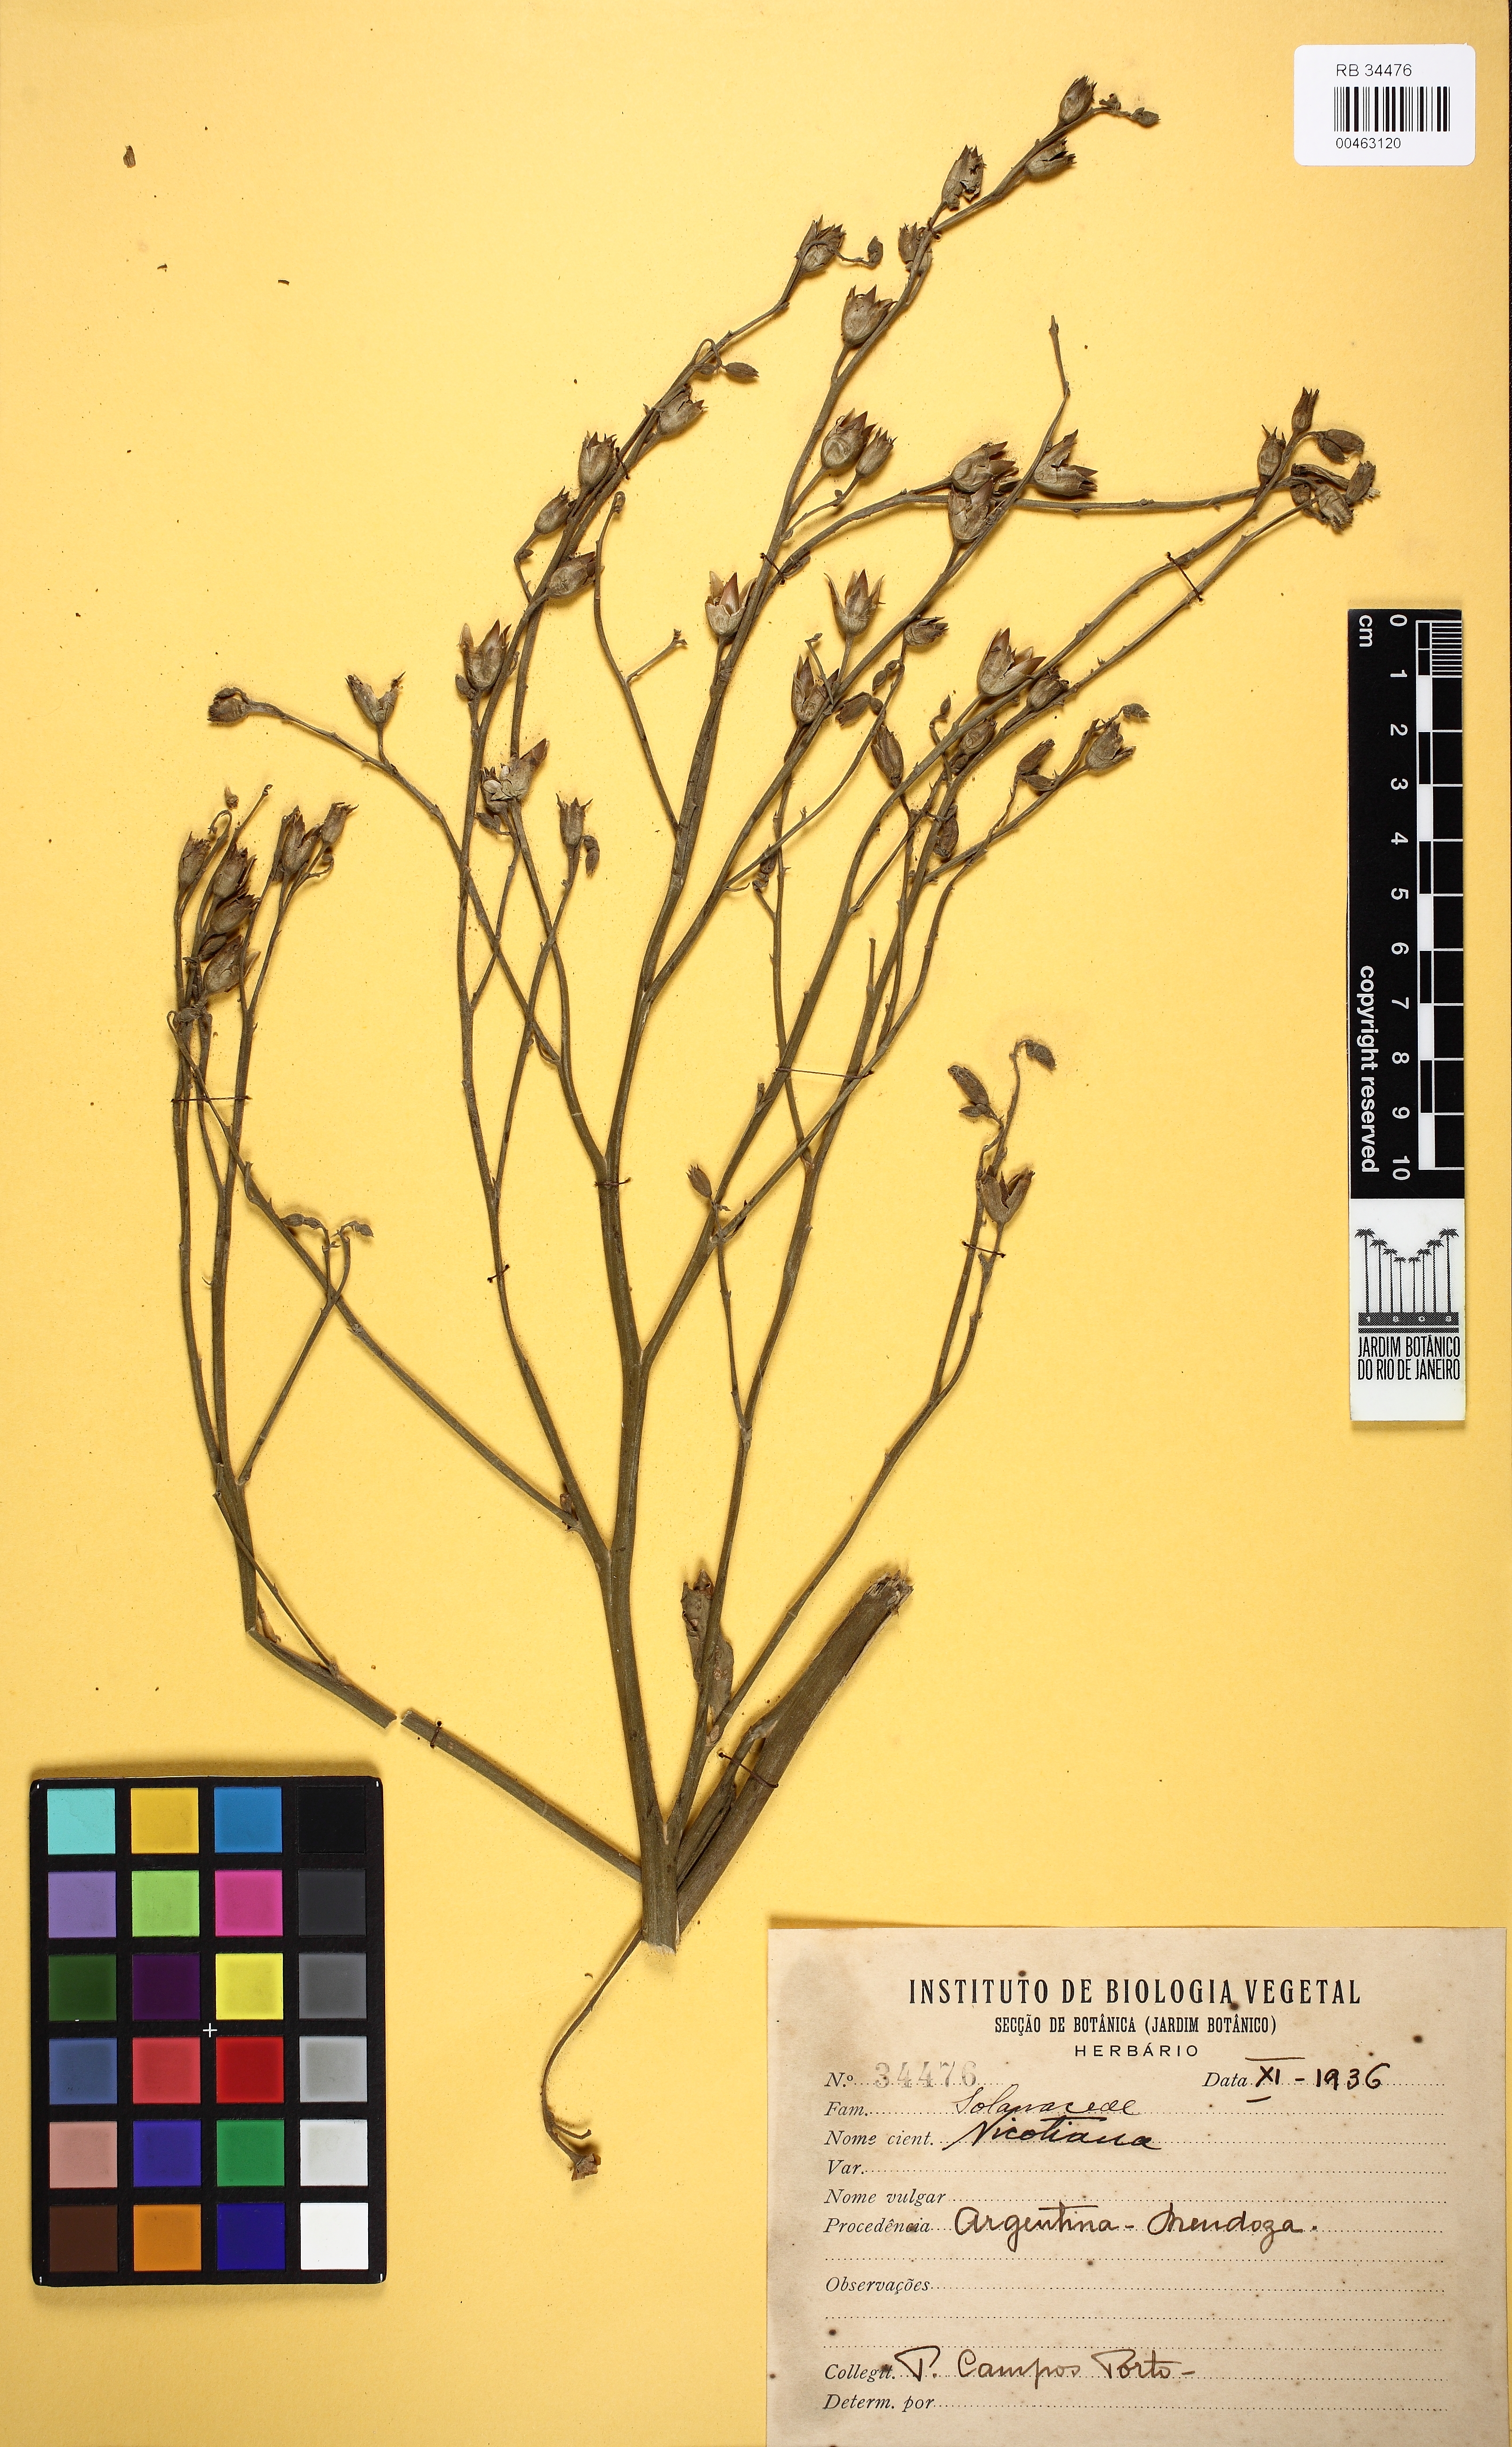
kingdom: Plantae
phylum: Tracheophyta
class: Magnoliopsida
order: Solanales
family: Solanaceae
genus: Nicotiana
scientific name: Nicotiana
